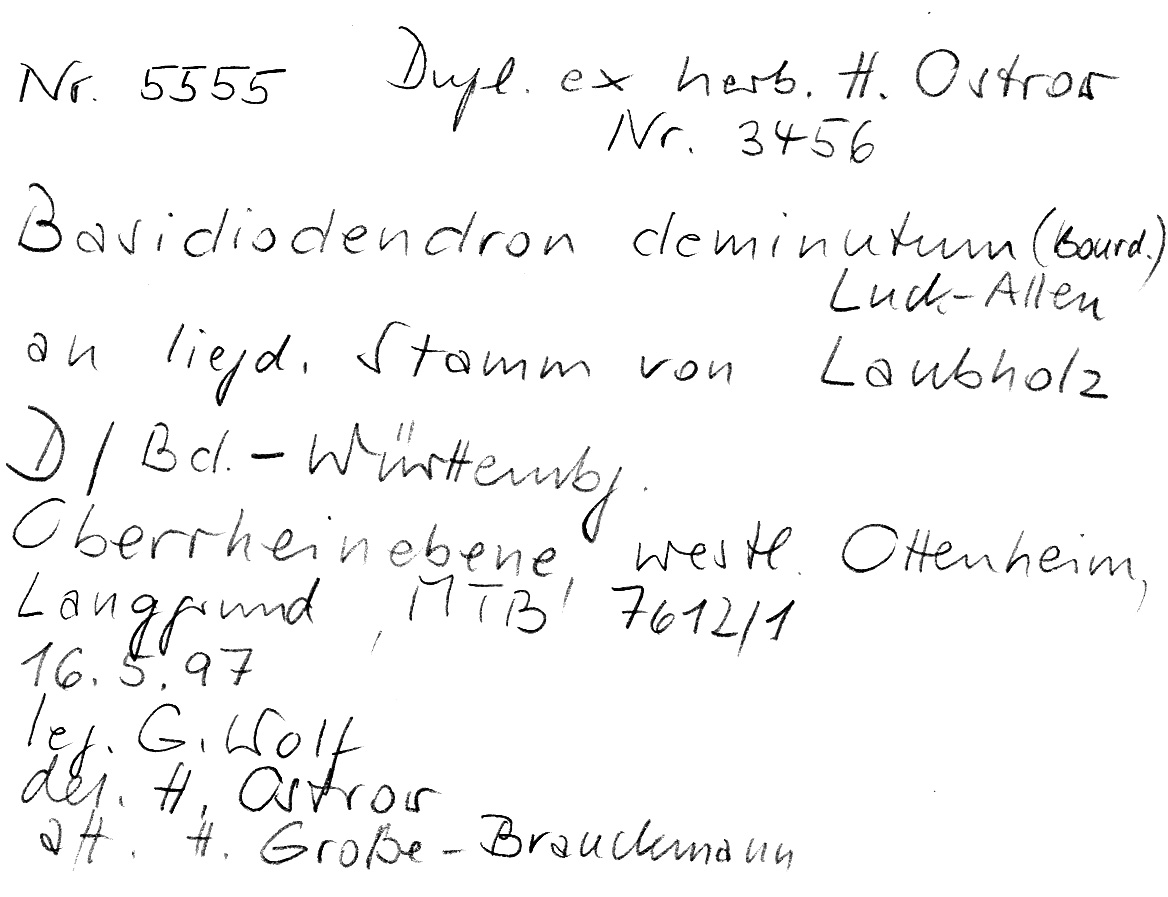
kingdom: Fungi
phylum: Basidiomycota
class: Agaricomycetes
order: Auriculariales
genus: Basidiodendron
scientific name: Basidiodendron deminutum
